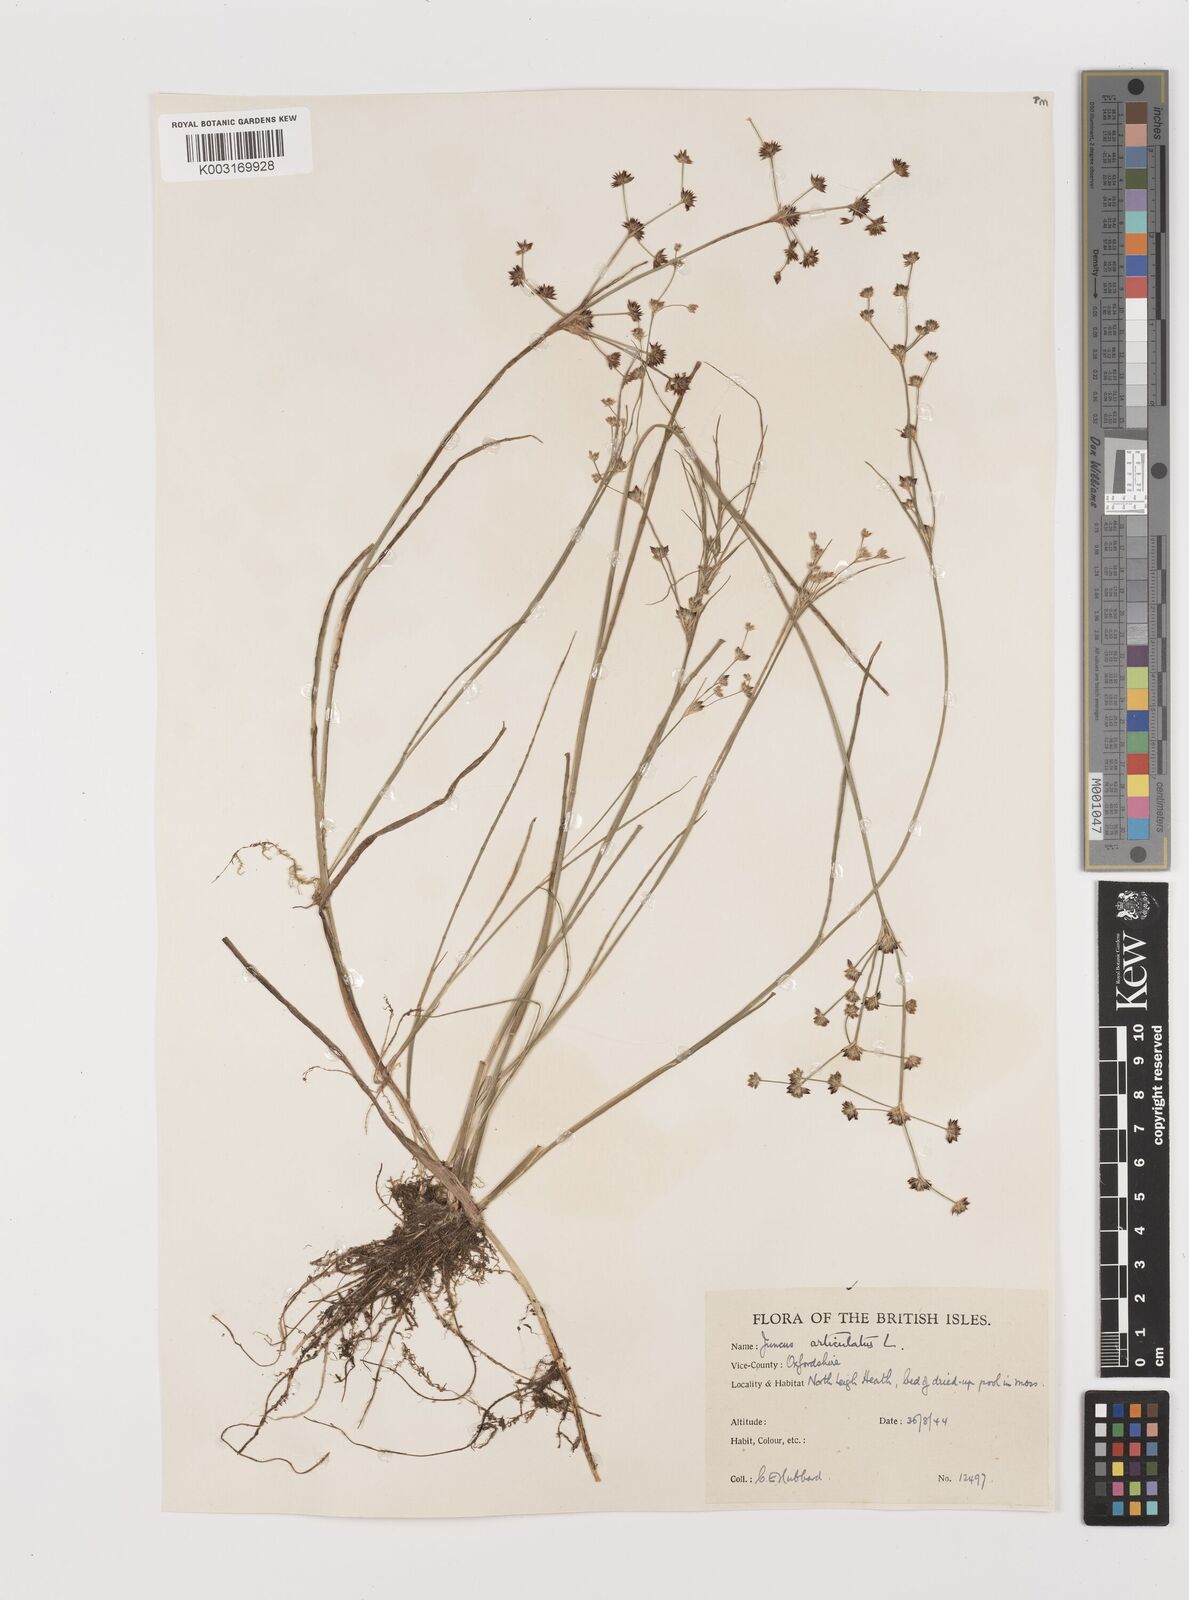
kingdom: Plantae
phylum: Tracheophyta
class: Liliopsida
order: Poales
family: Juncaceae
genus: Juncus
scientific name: Juncus articulatus
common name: Jointed rush
